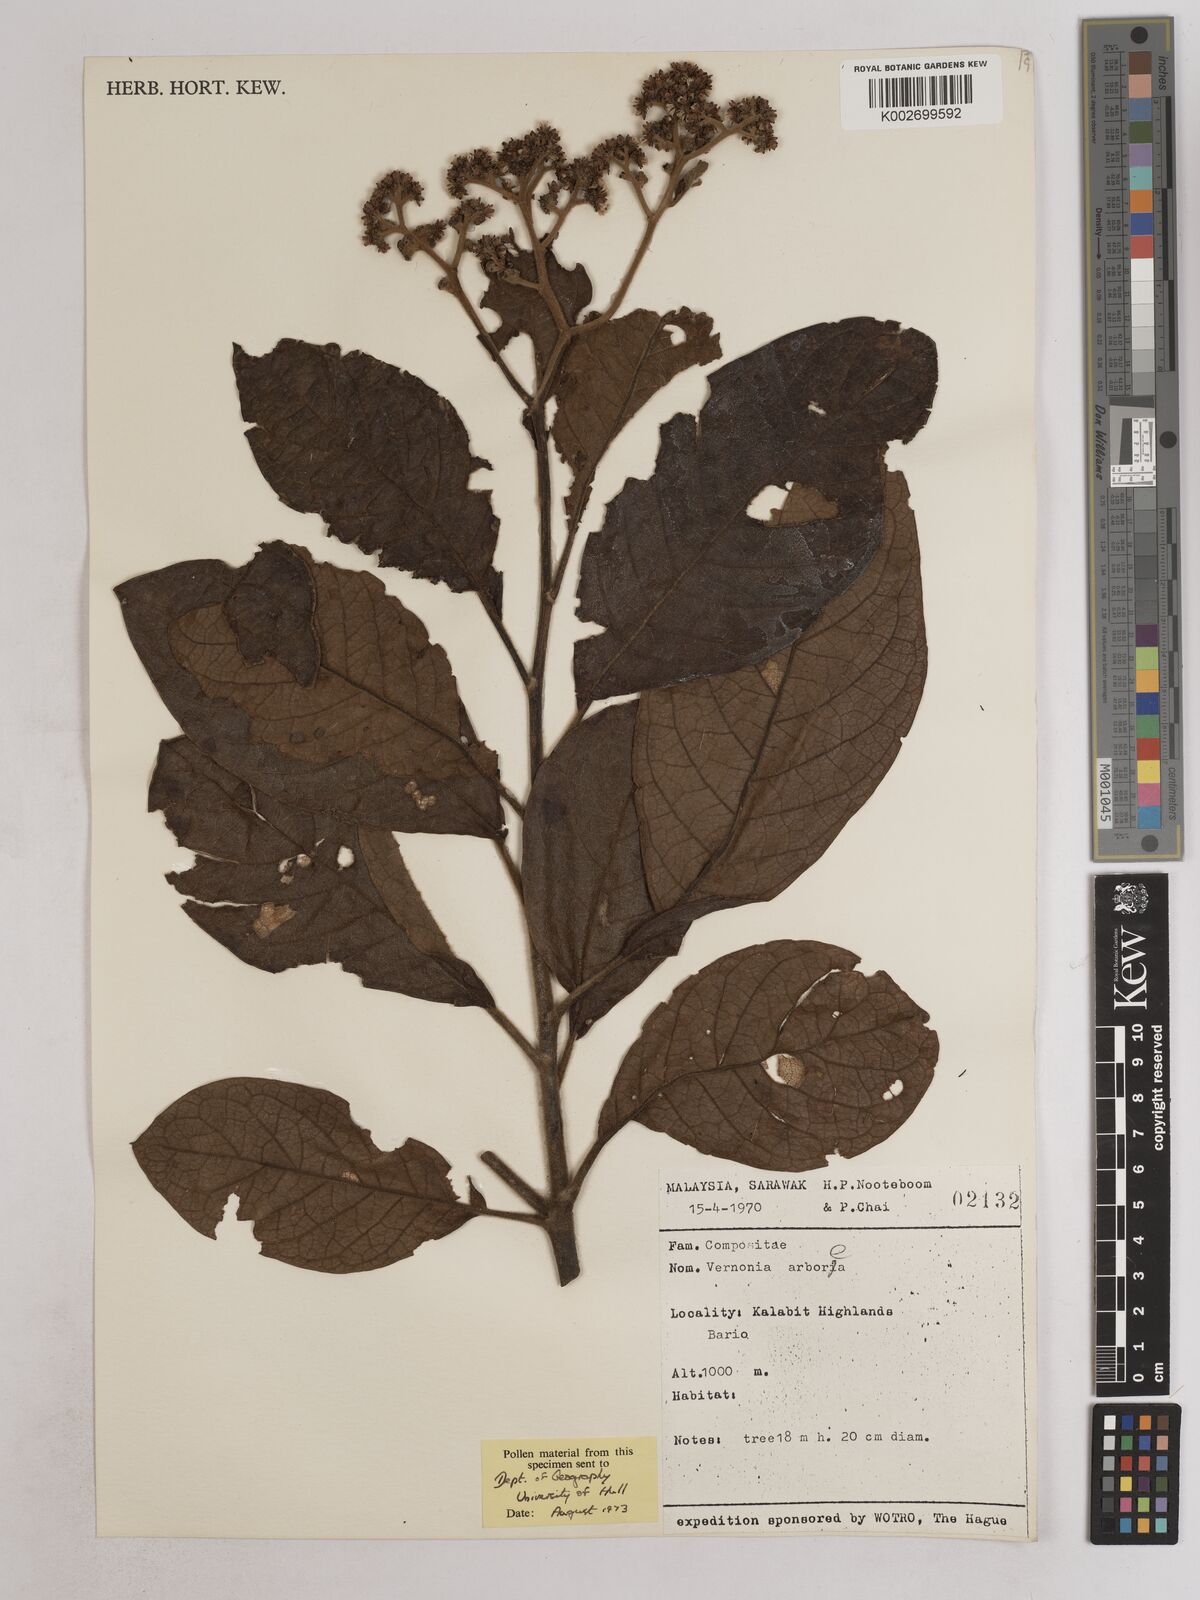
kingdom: Plantae
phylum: Tracheophyta
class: Magnoliopsida
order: Asterales
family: Asteraceae
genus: Strobocalyx
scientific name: Strobocalyx arborea
